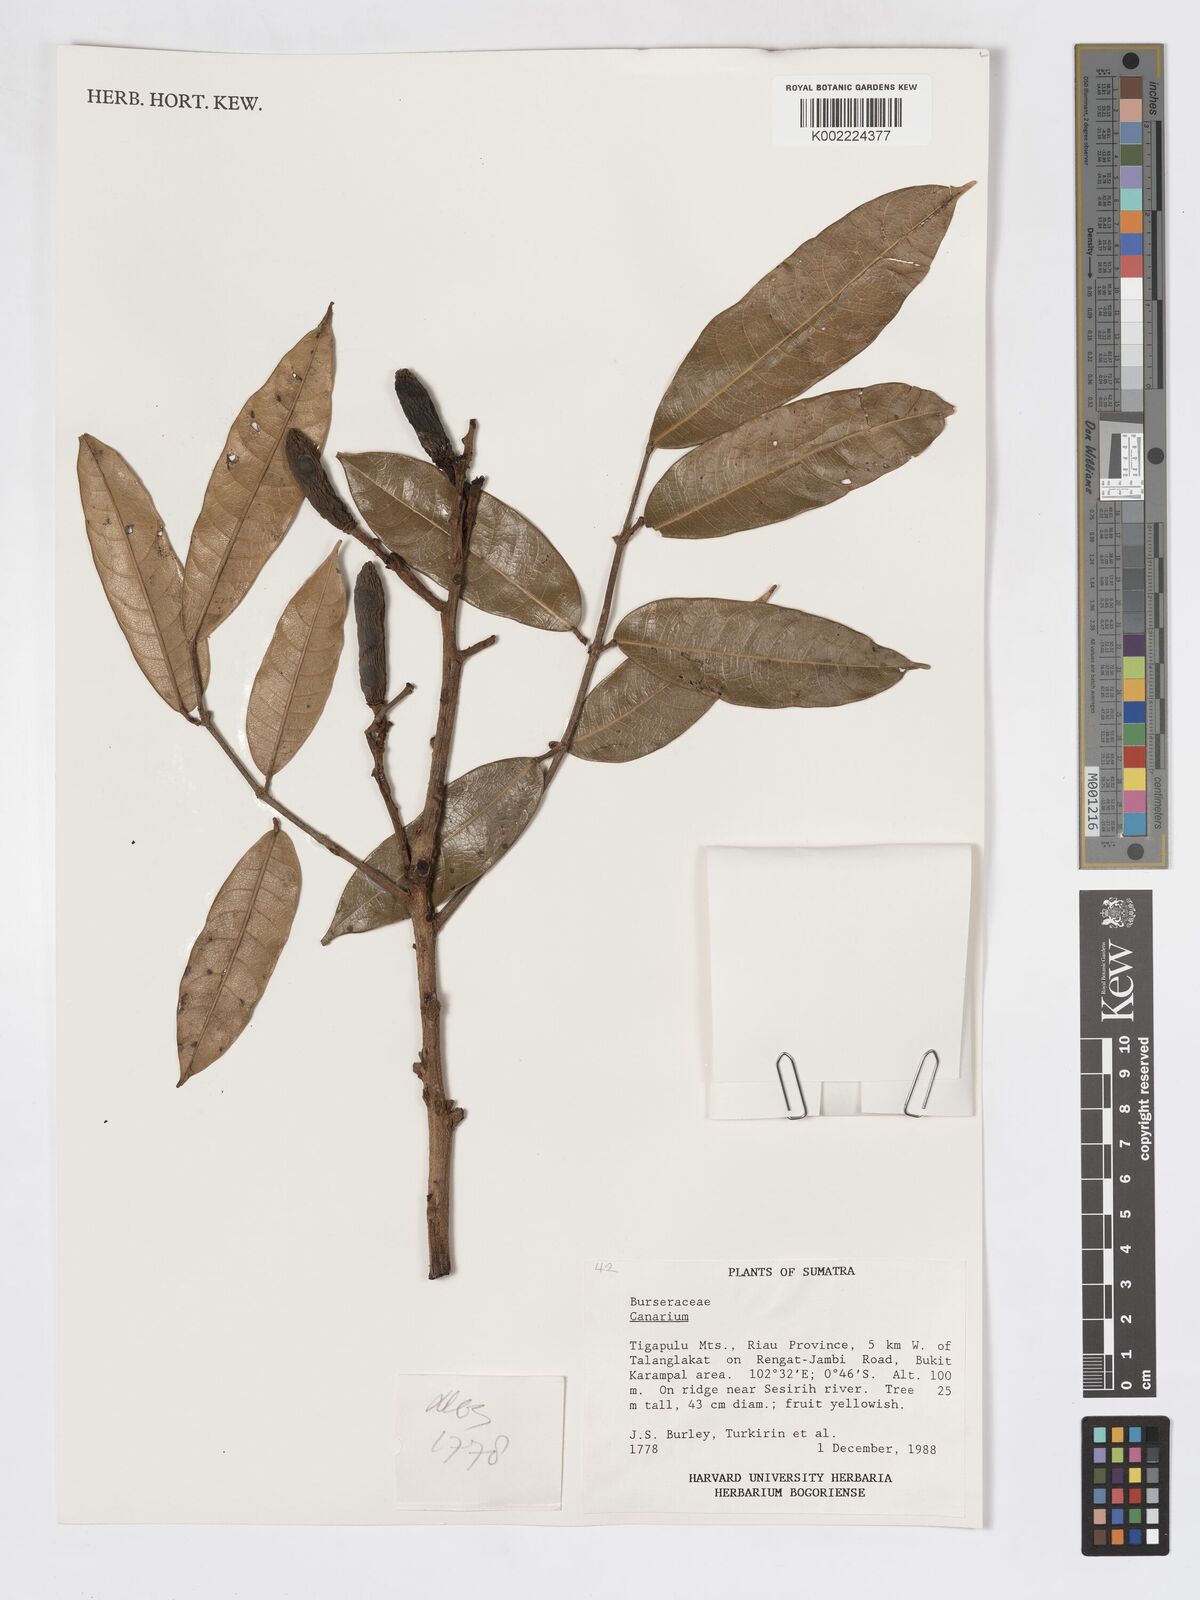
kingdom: Plantae
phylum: Tracheophyta
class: Magnoliopsida
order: Sapindales
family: Burseraceae
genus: Canarium
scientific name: Canarium
